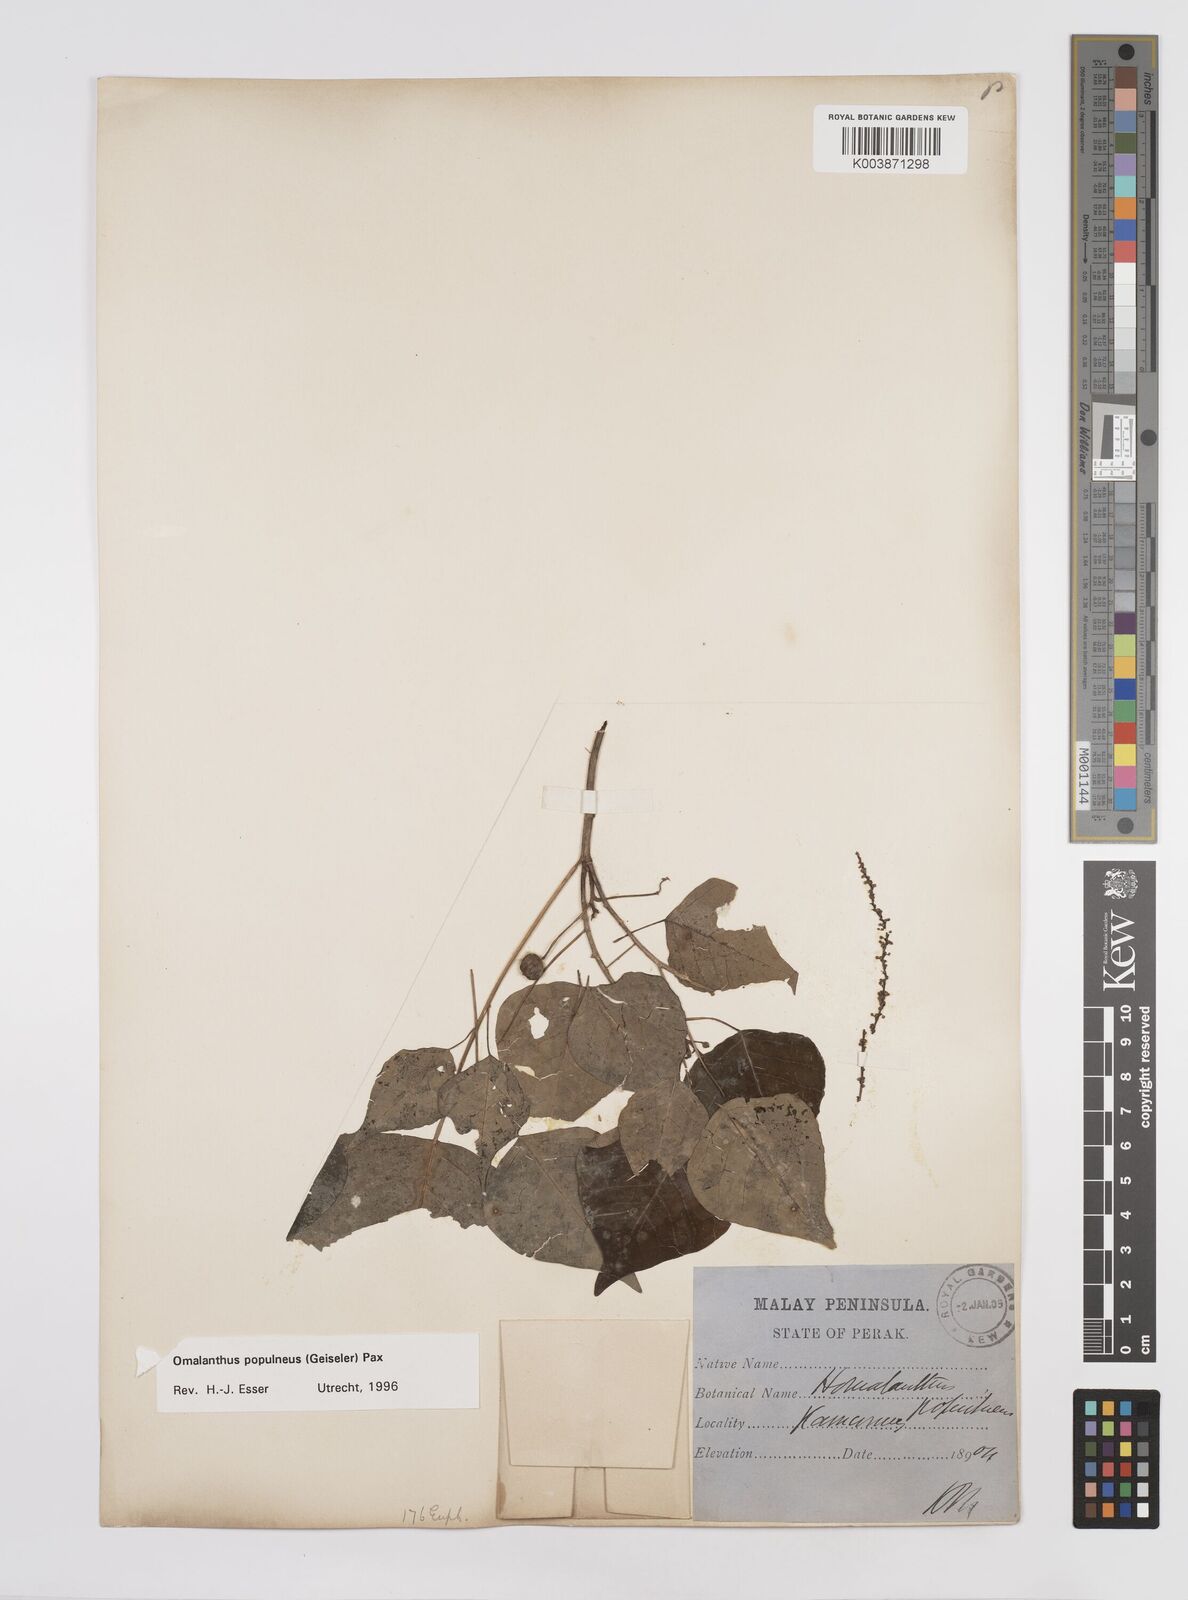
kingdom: Plantae
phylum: Tracheophyta
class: Magnoliopsida
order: Malpighiales
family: Euphorbiaceae
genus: Homalanthus
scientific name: Homalanthus populneus
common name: Spurge
